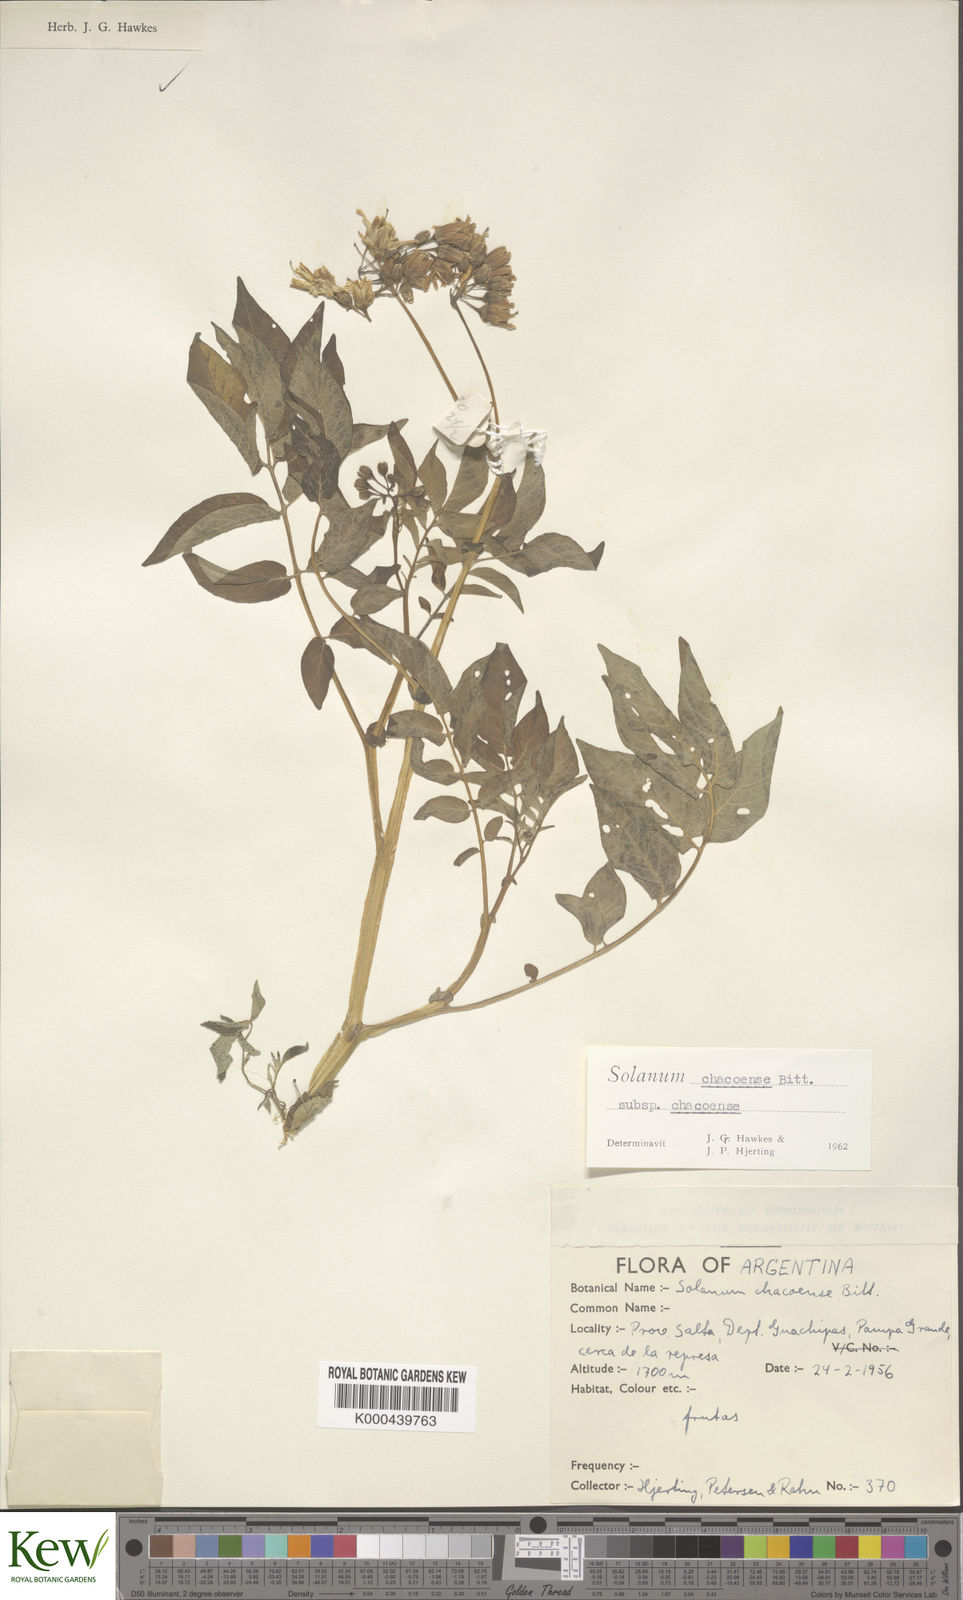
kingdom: Plantae
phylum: Tracheophyta
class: Magnoliopsida
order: Solanales
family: Solanaceae
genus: Solanum
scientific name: Solanum chacoense
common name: Chaco potato
